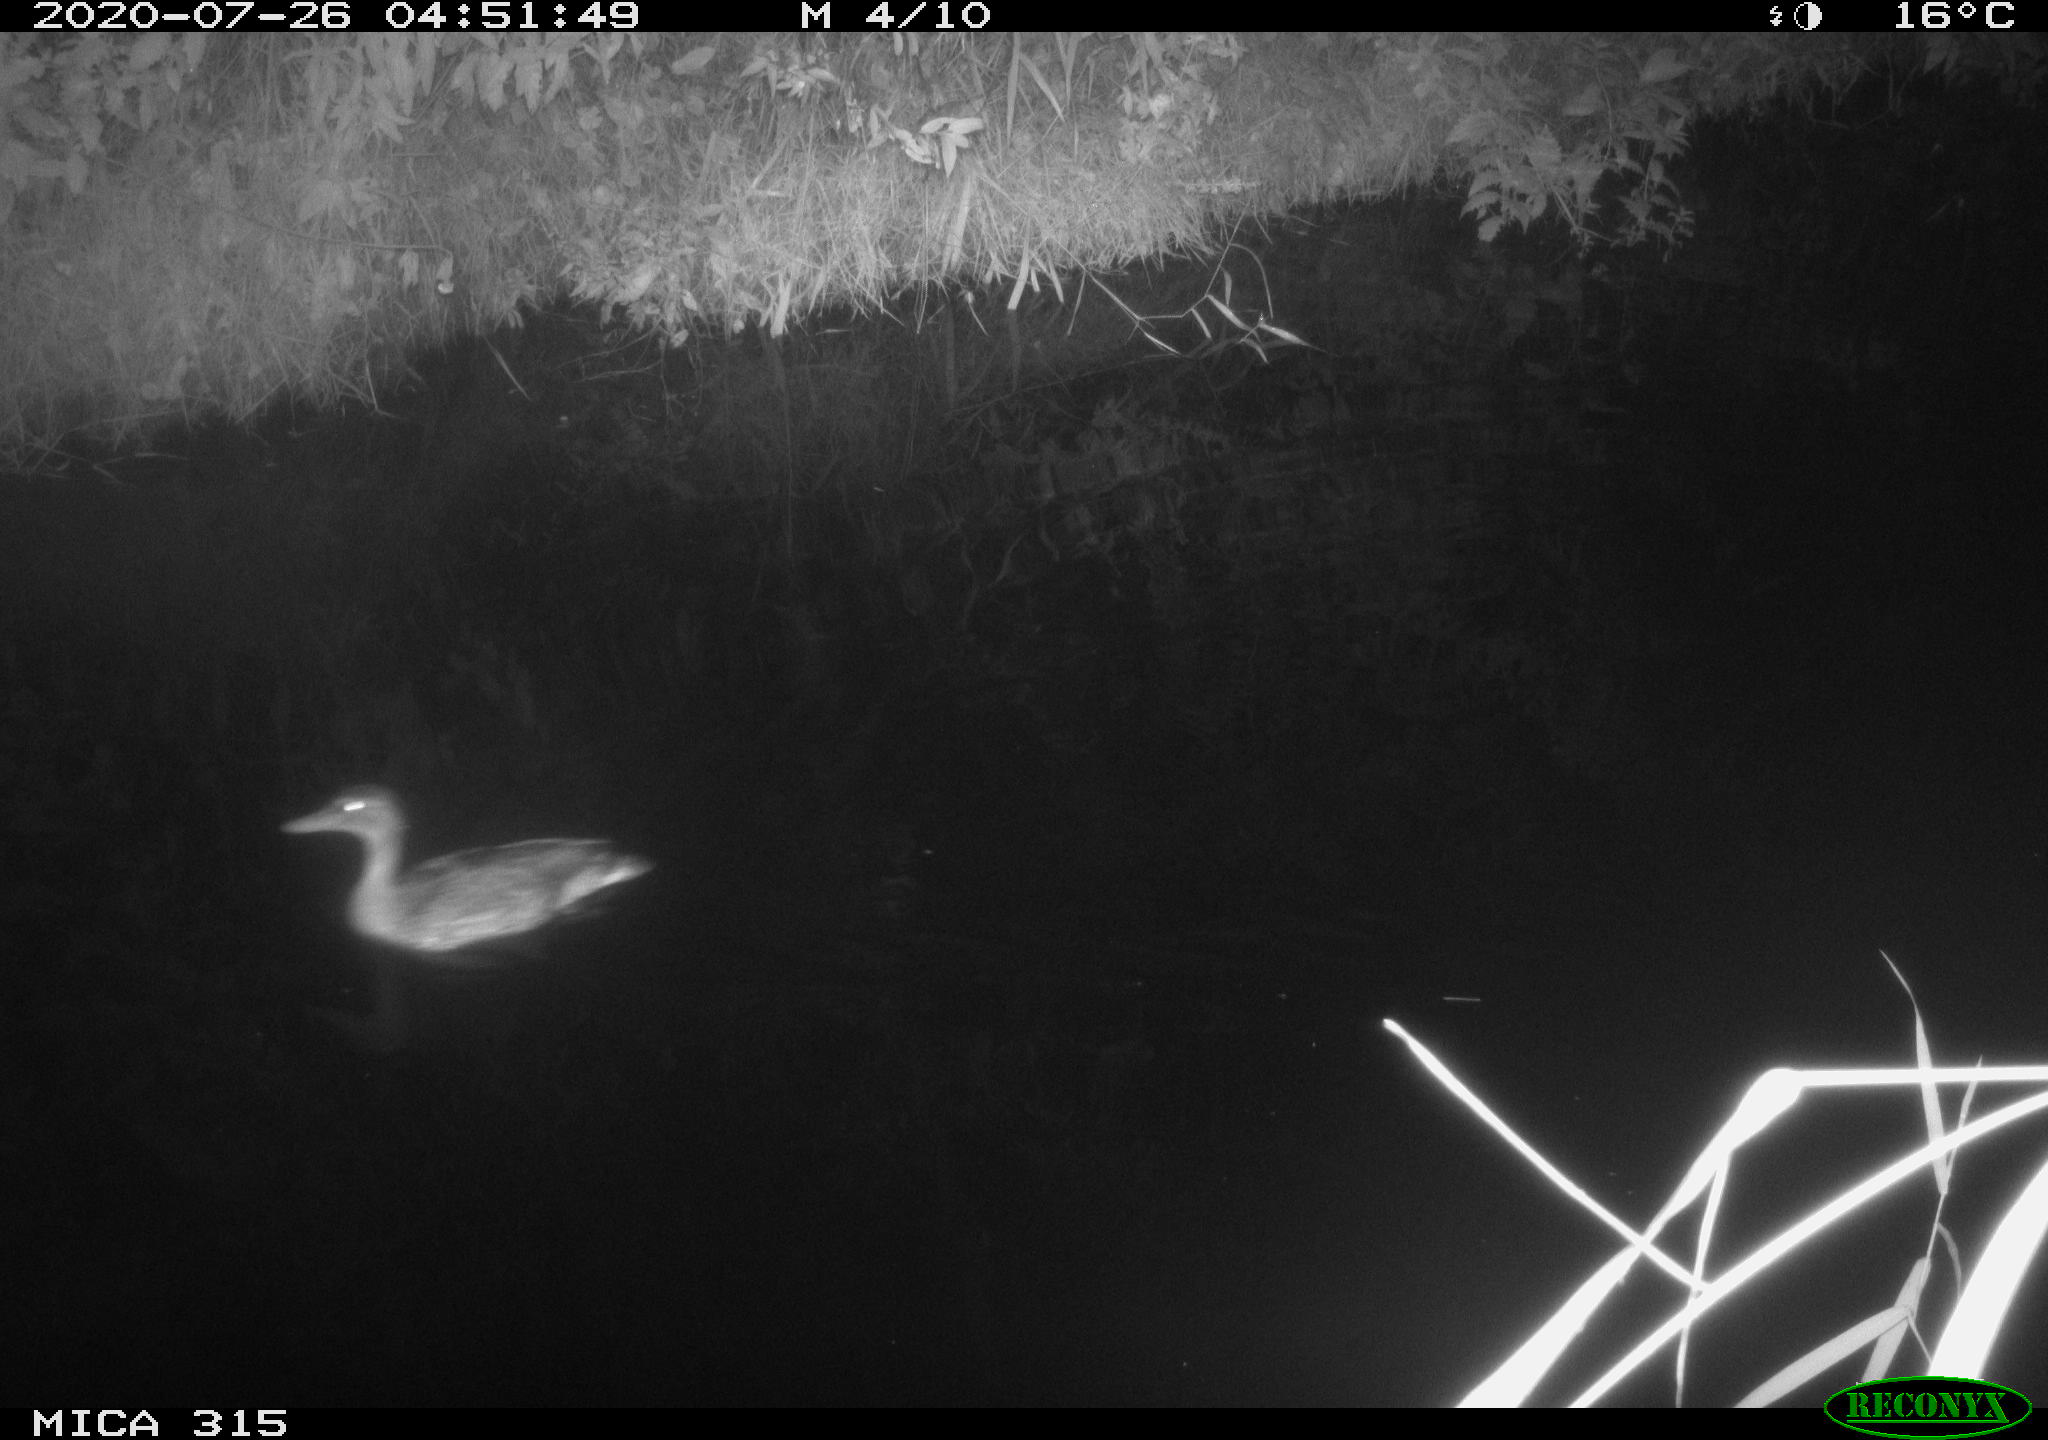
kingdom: Animalia
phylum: Chordata
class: Aves
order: Anseriformes
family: Anatidae
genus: Anas
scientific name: Anas platyrhynchos
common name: Mallard
